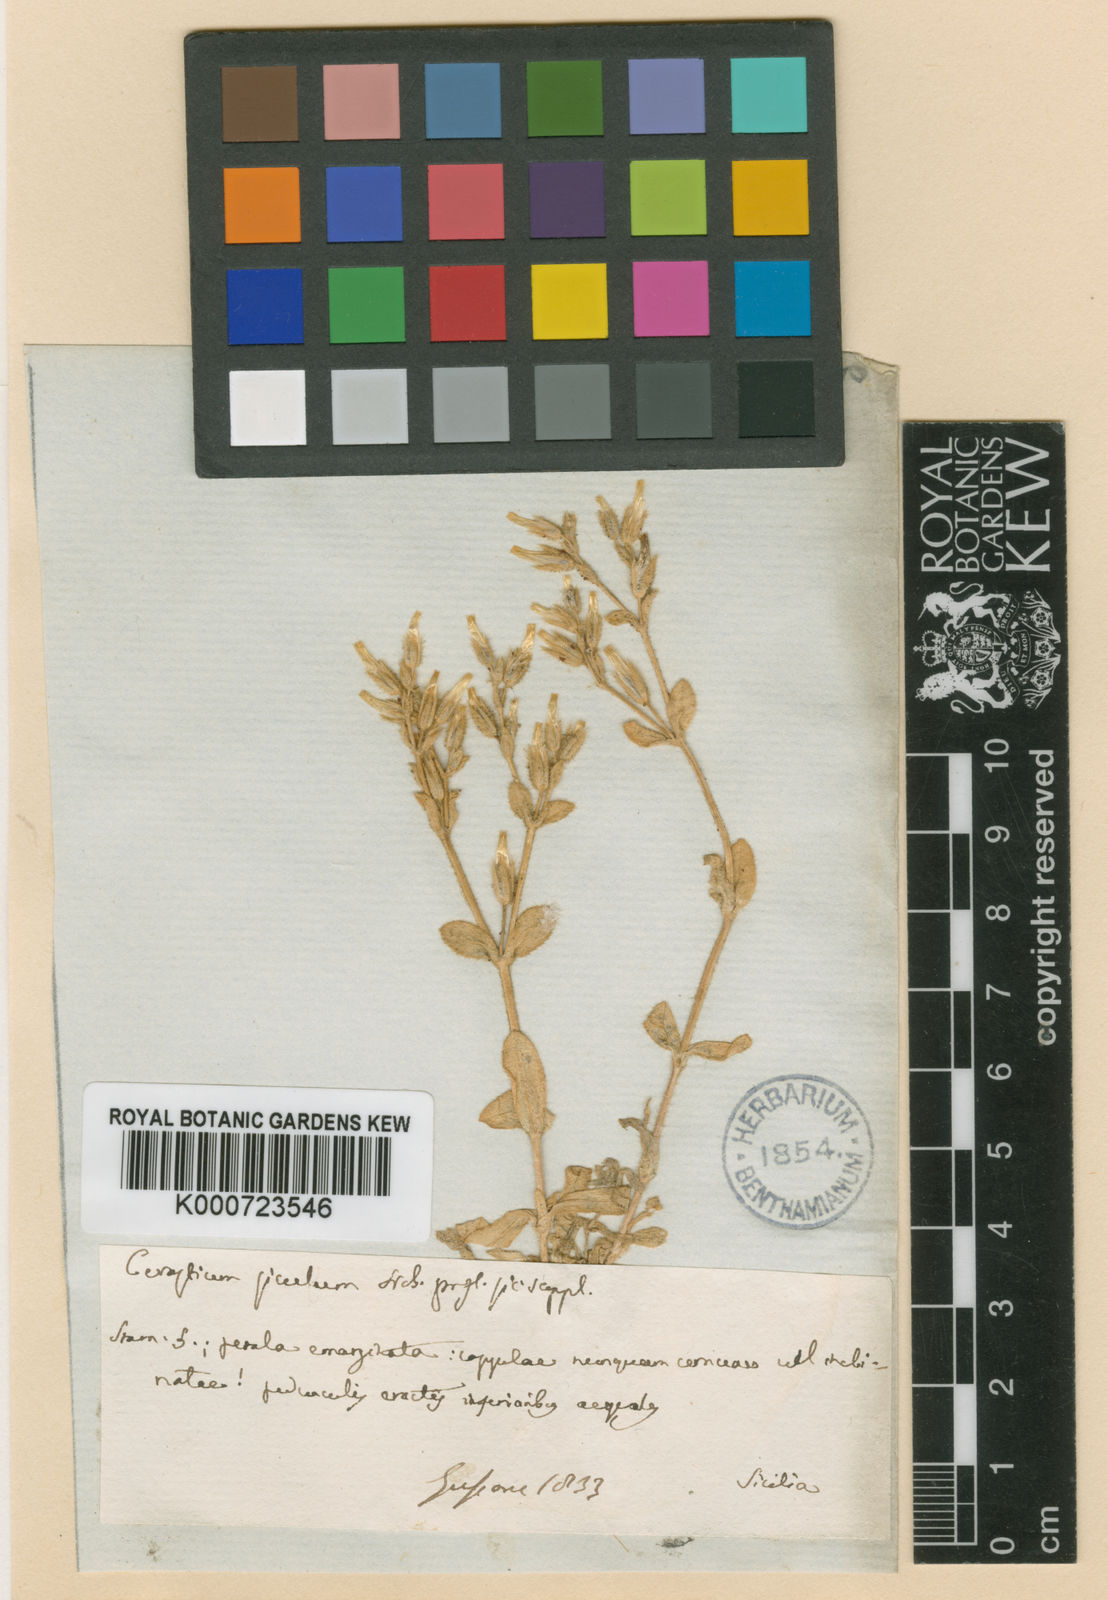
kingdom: Plantae
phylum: Tracheophyta
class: Magnoliopsida
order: Caryophyllales
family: Caryophyllaceae
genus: Cerastium
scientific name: Cerastium siculum
